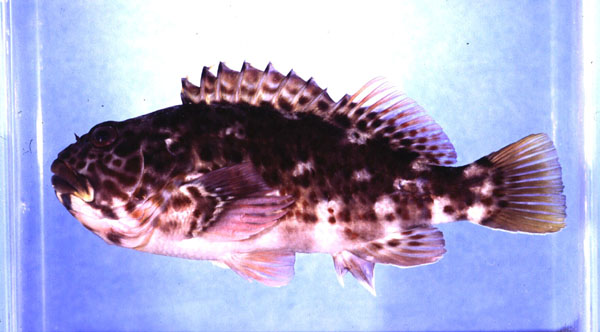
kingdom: Animalia
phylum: Chordata
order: Perciformes
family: Cirrhitidae
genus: Cirrhitus
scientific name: Cirrhitus pinnulatus
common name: Stocky hawkfish
